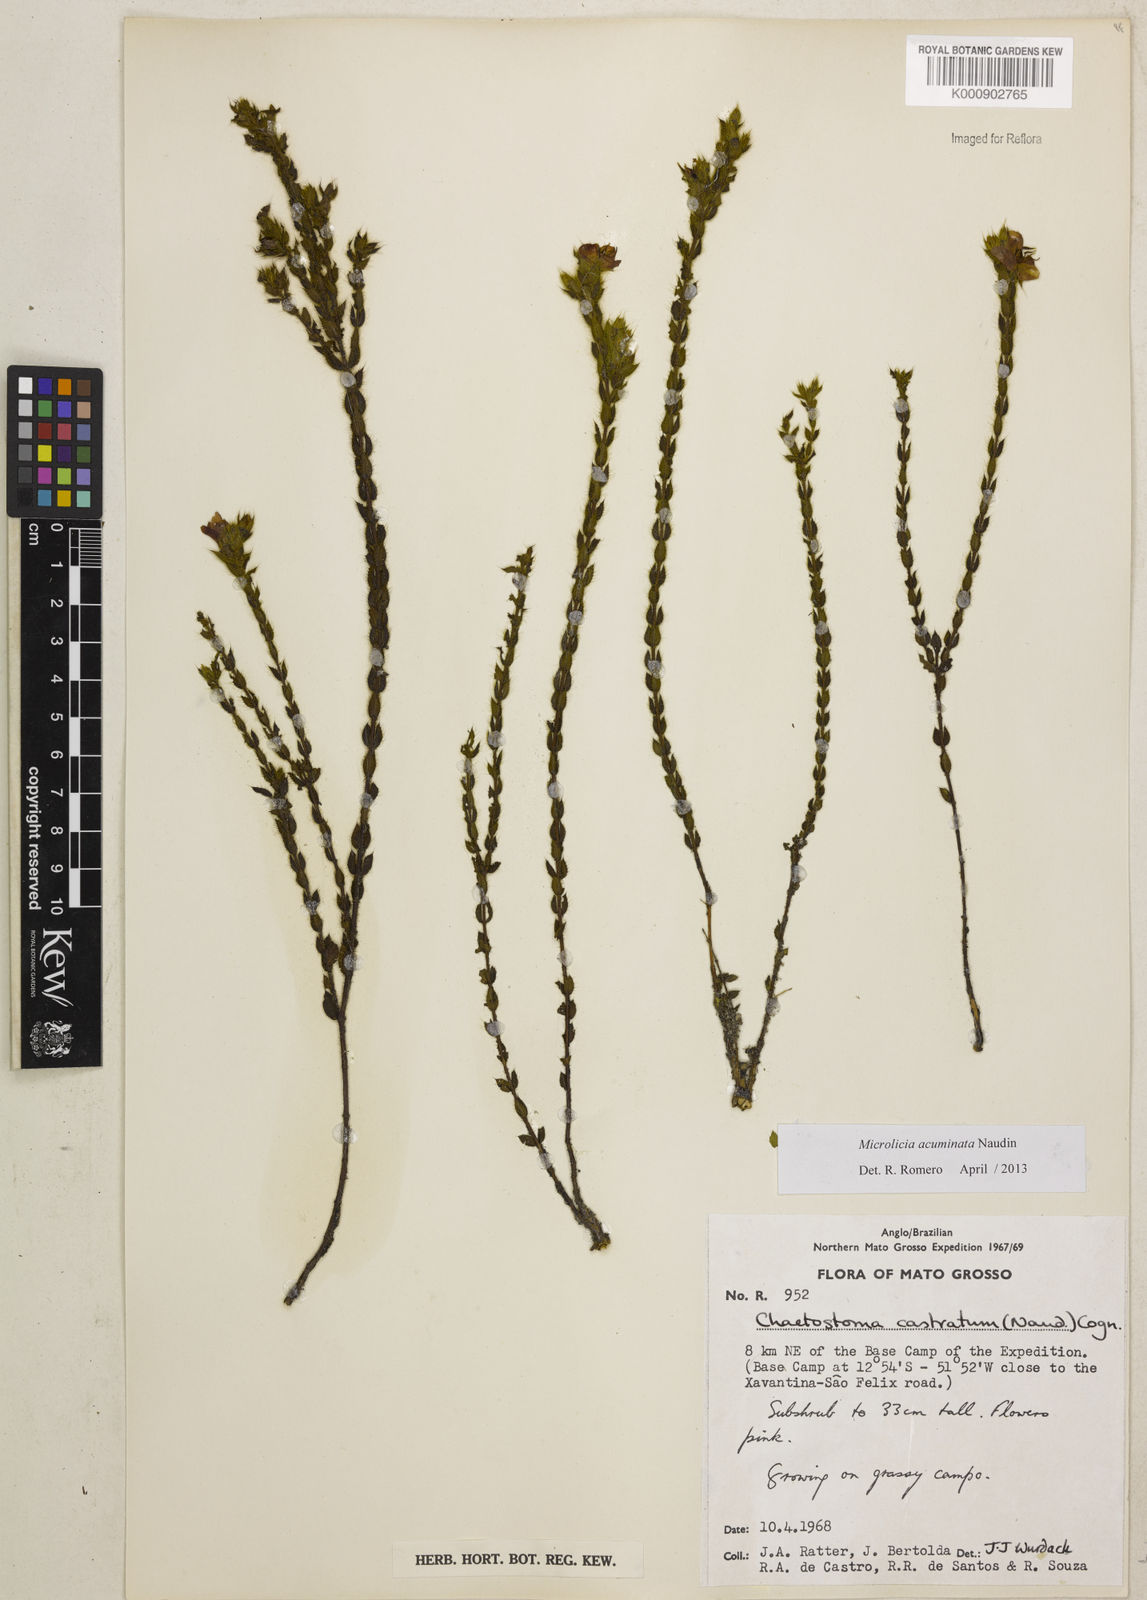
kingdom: Plantae
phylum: Tracheophyta
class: Magnoliopsida
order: Myrtales
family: Melastomataceae
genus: Microlicia
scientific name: Microlicia
